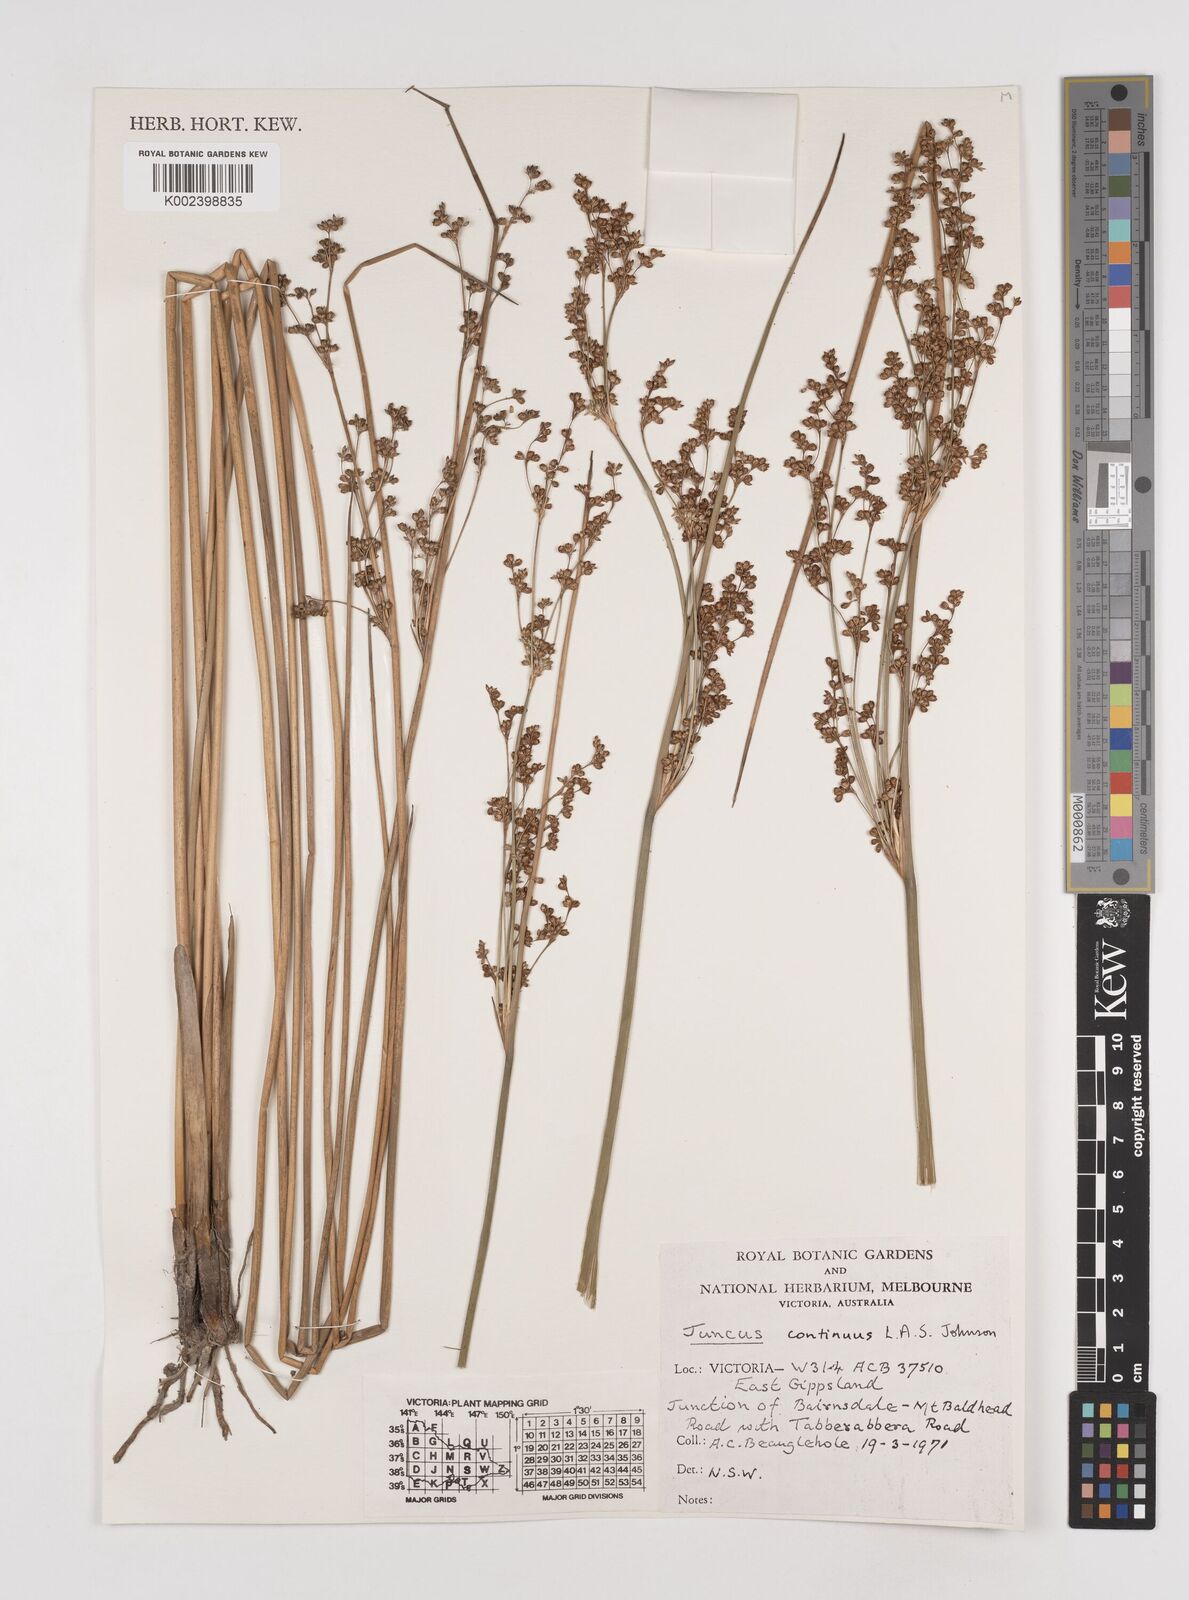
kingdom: Plantae
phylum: Tracheophyta
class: Liliopsida
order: Poales
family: Juncaceae
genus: Juncus
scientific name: Juncus continuus
